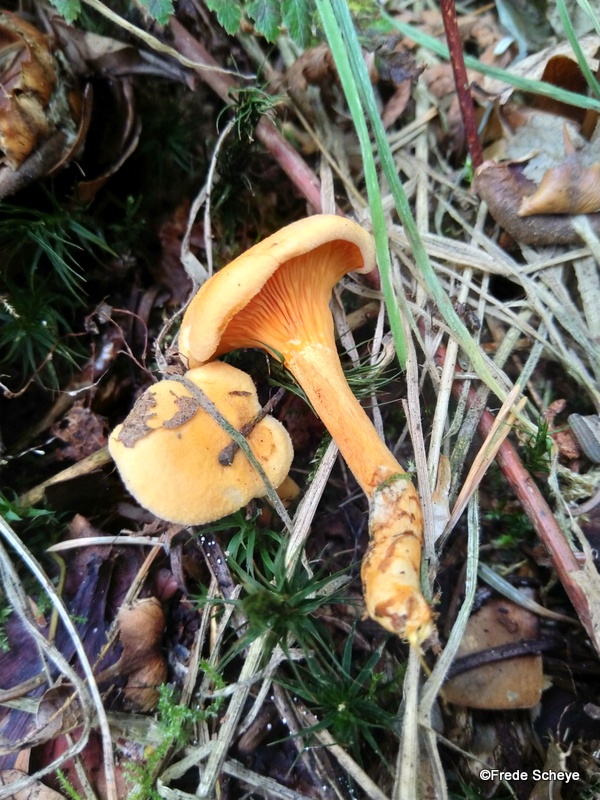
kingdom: Fungi
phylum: Basidiomycota
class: Agaricomycetes
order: Boletales
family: Hygrophoropsidaceae
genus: Hygrophoropsis
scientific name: Hygrophoropsis aurantiaca
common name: almindelig orangekantarel
